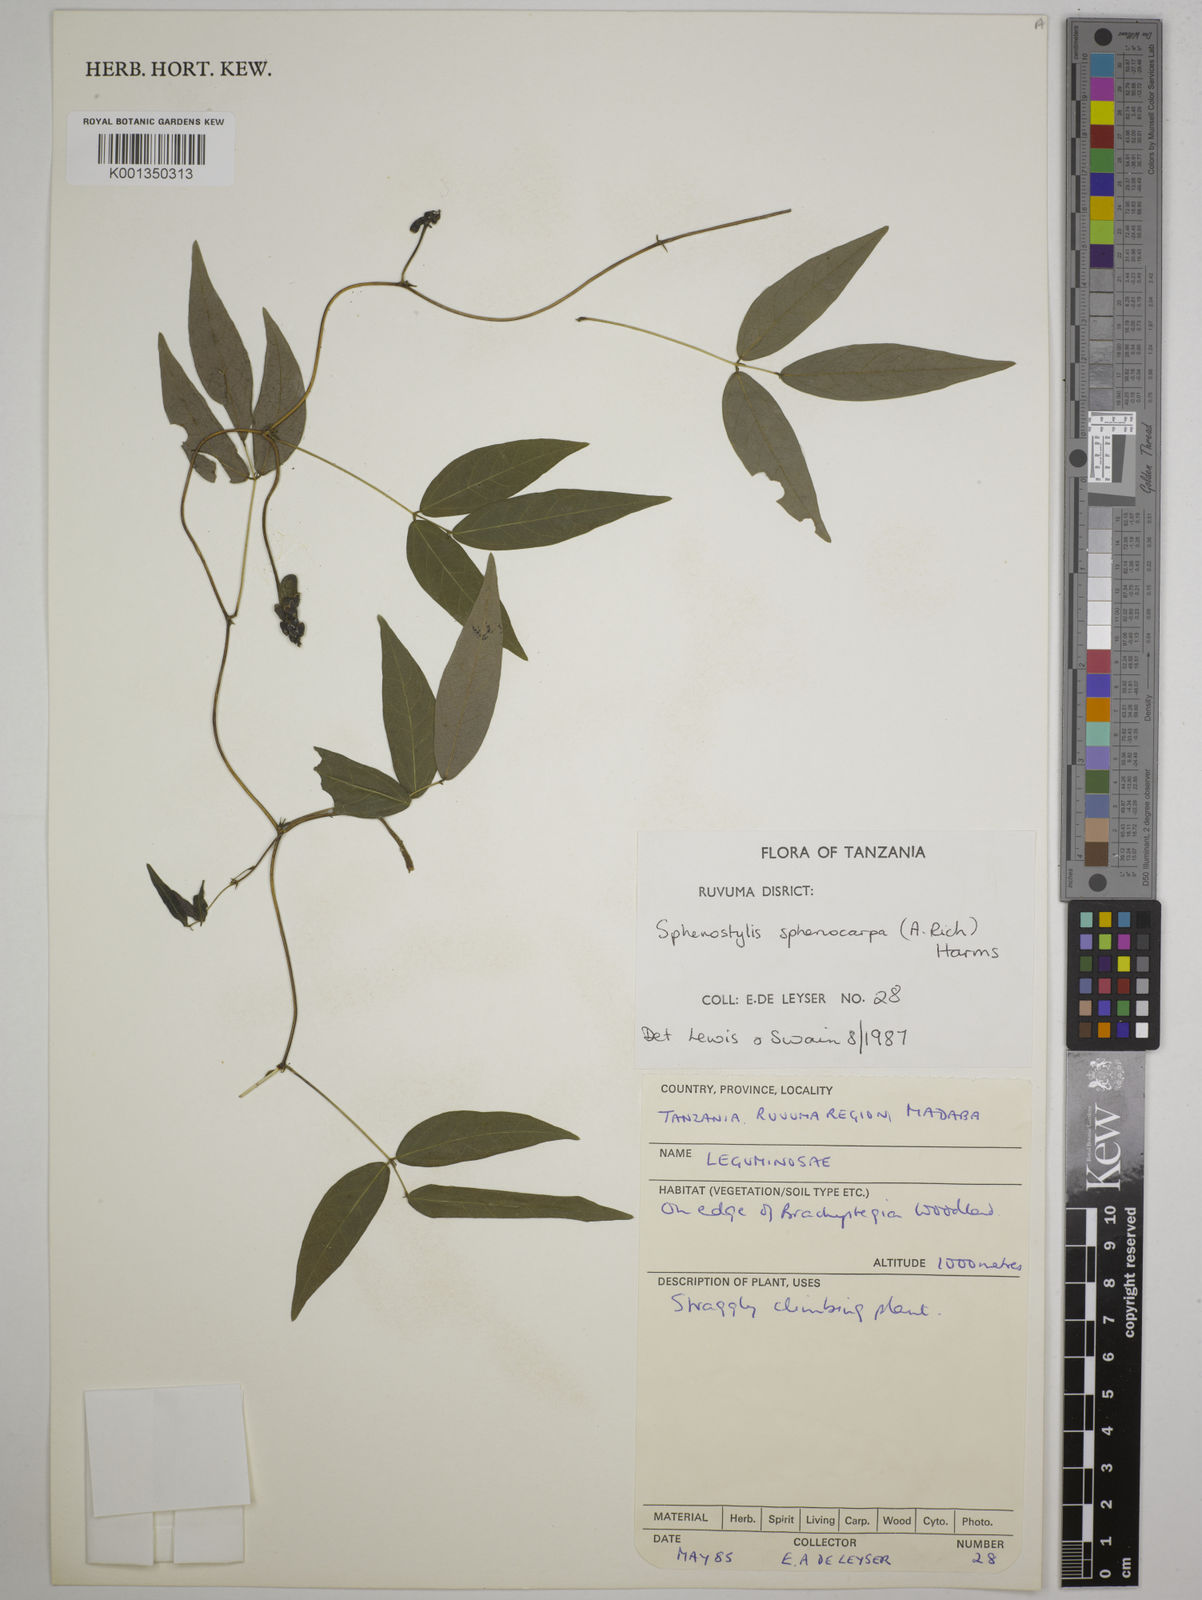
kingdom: Plantae
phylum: Tracheophyta
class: Magnoliopsida
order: Fabales
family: Fabaceae
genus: Sphenostylis
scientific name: Sphenostylis stenocarpa
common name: Yam-pea
